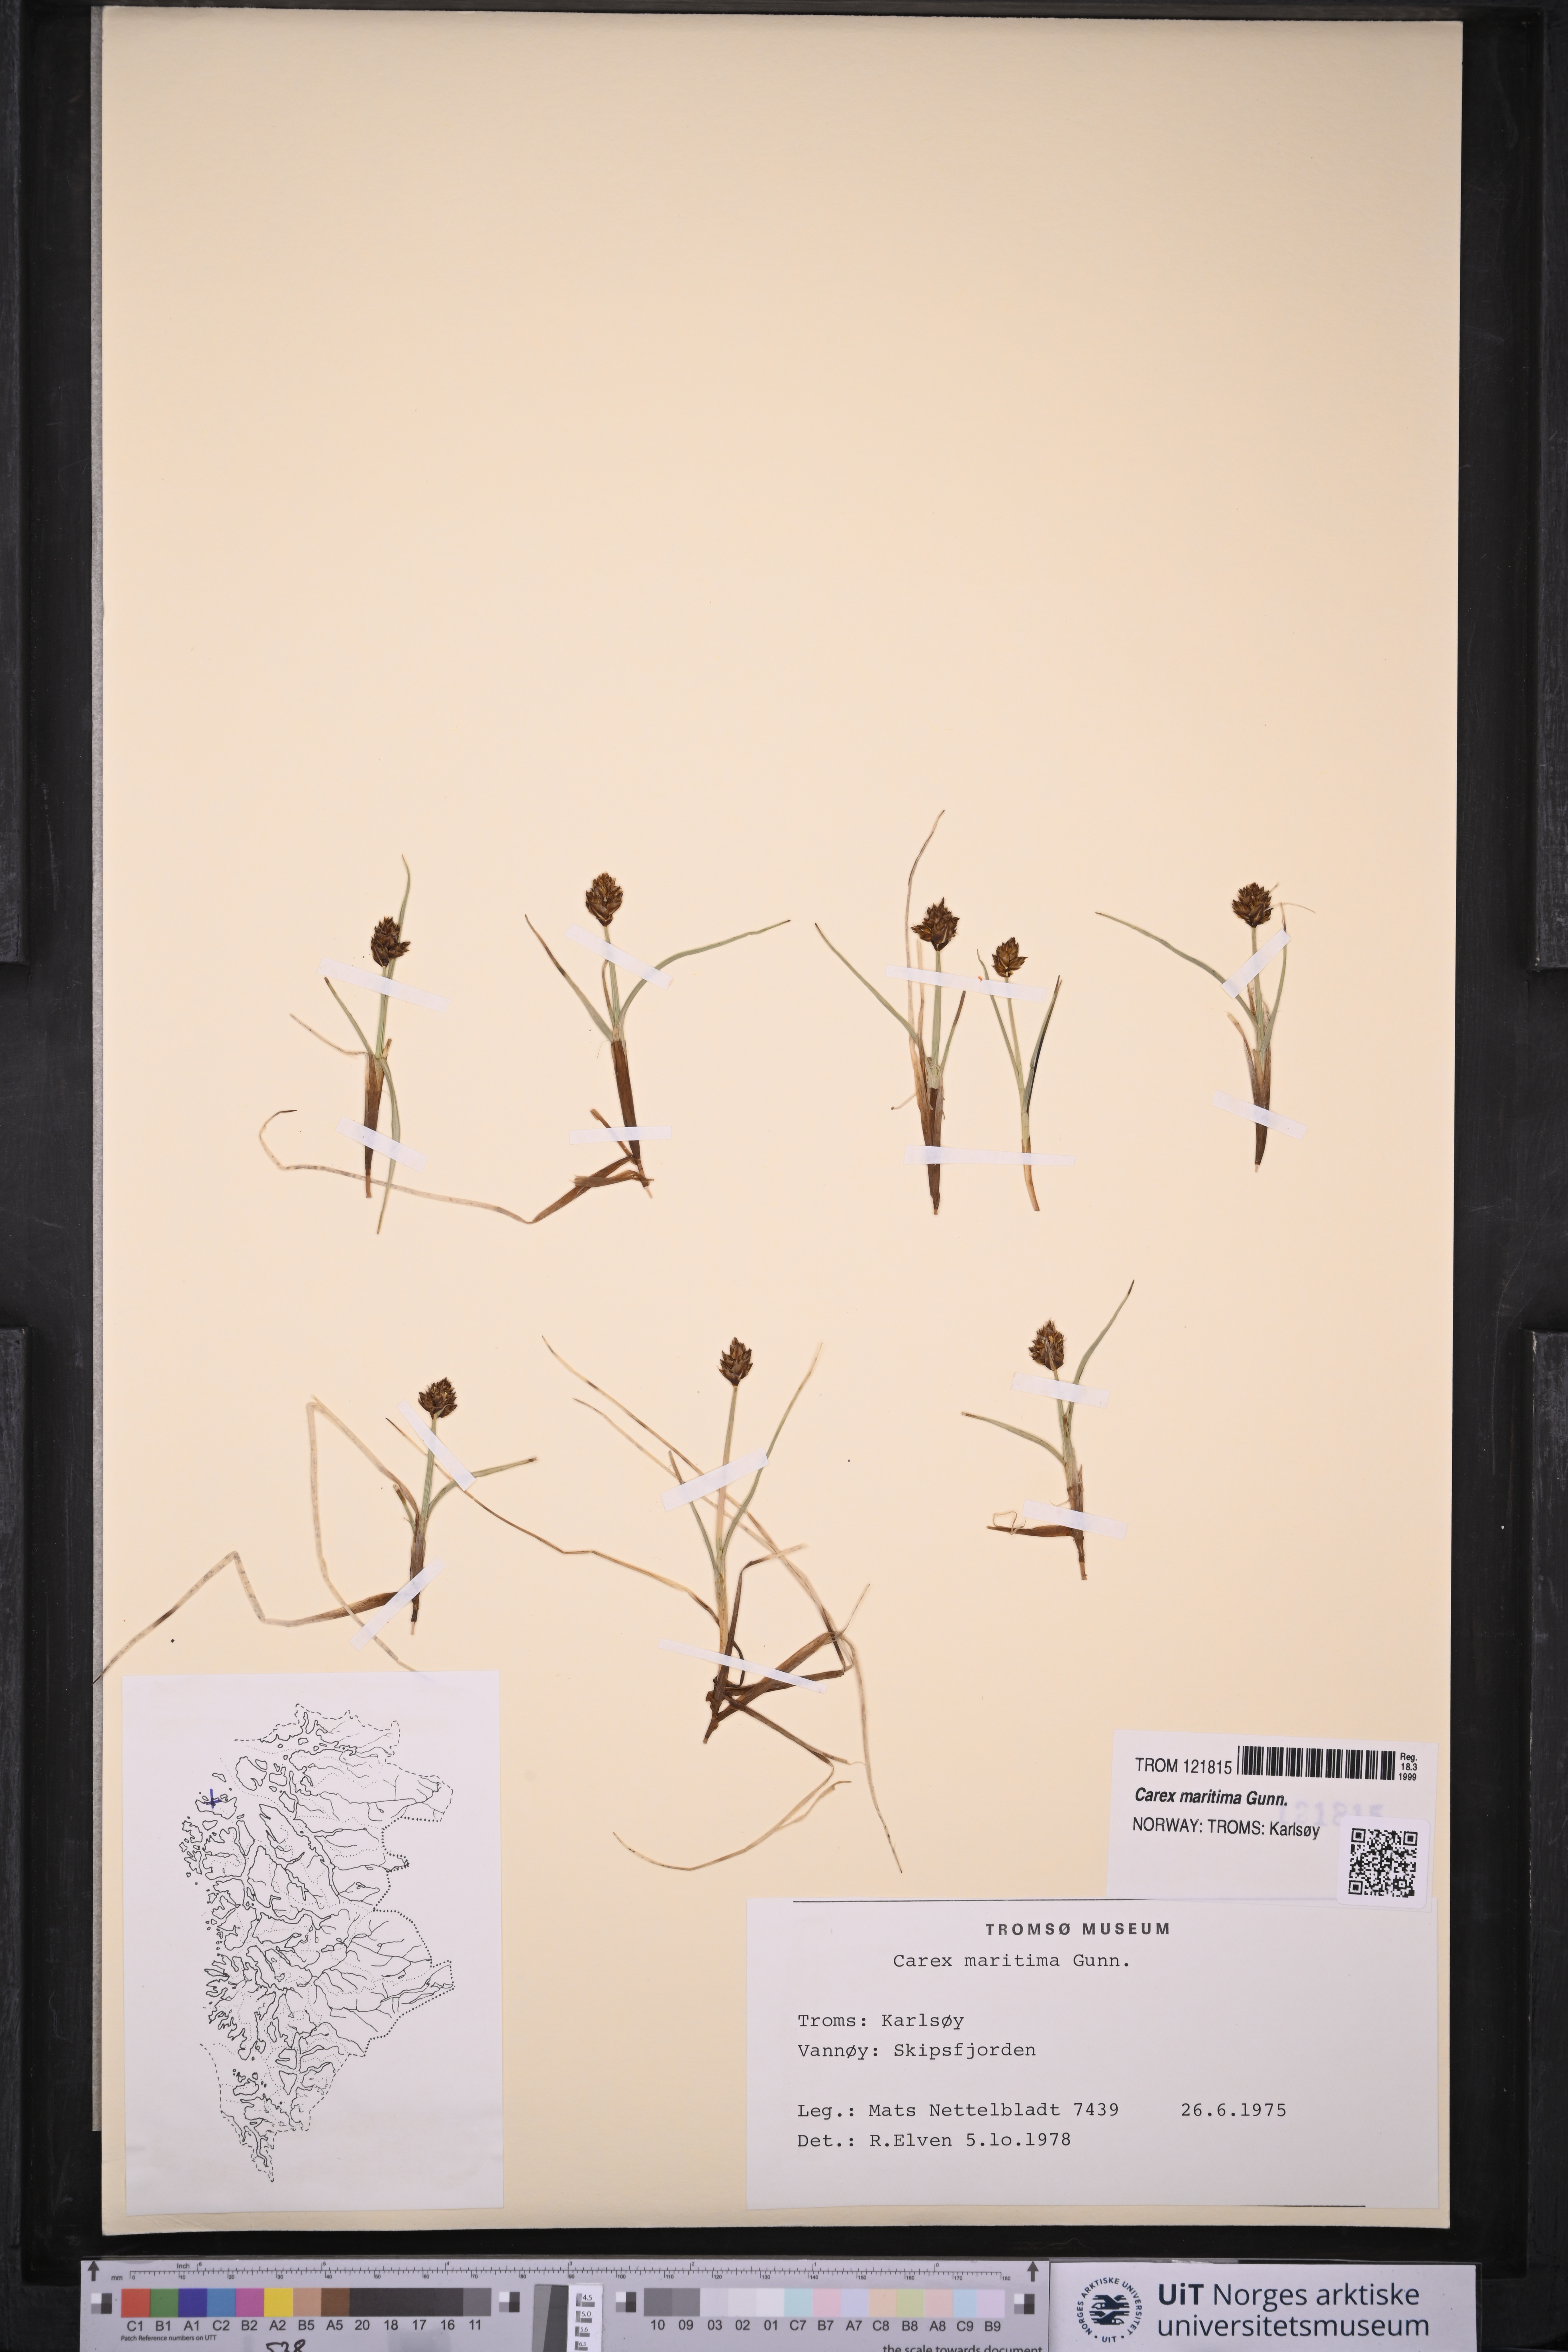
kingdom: Plantae
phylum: Tracheophyta
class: Liliopsida
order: Poales
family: Cyperaceae
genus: Carex
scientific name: Carex maritima
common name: Curved sedge
